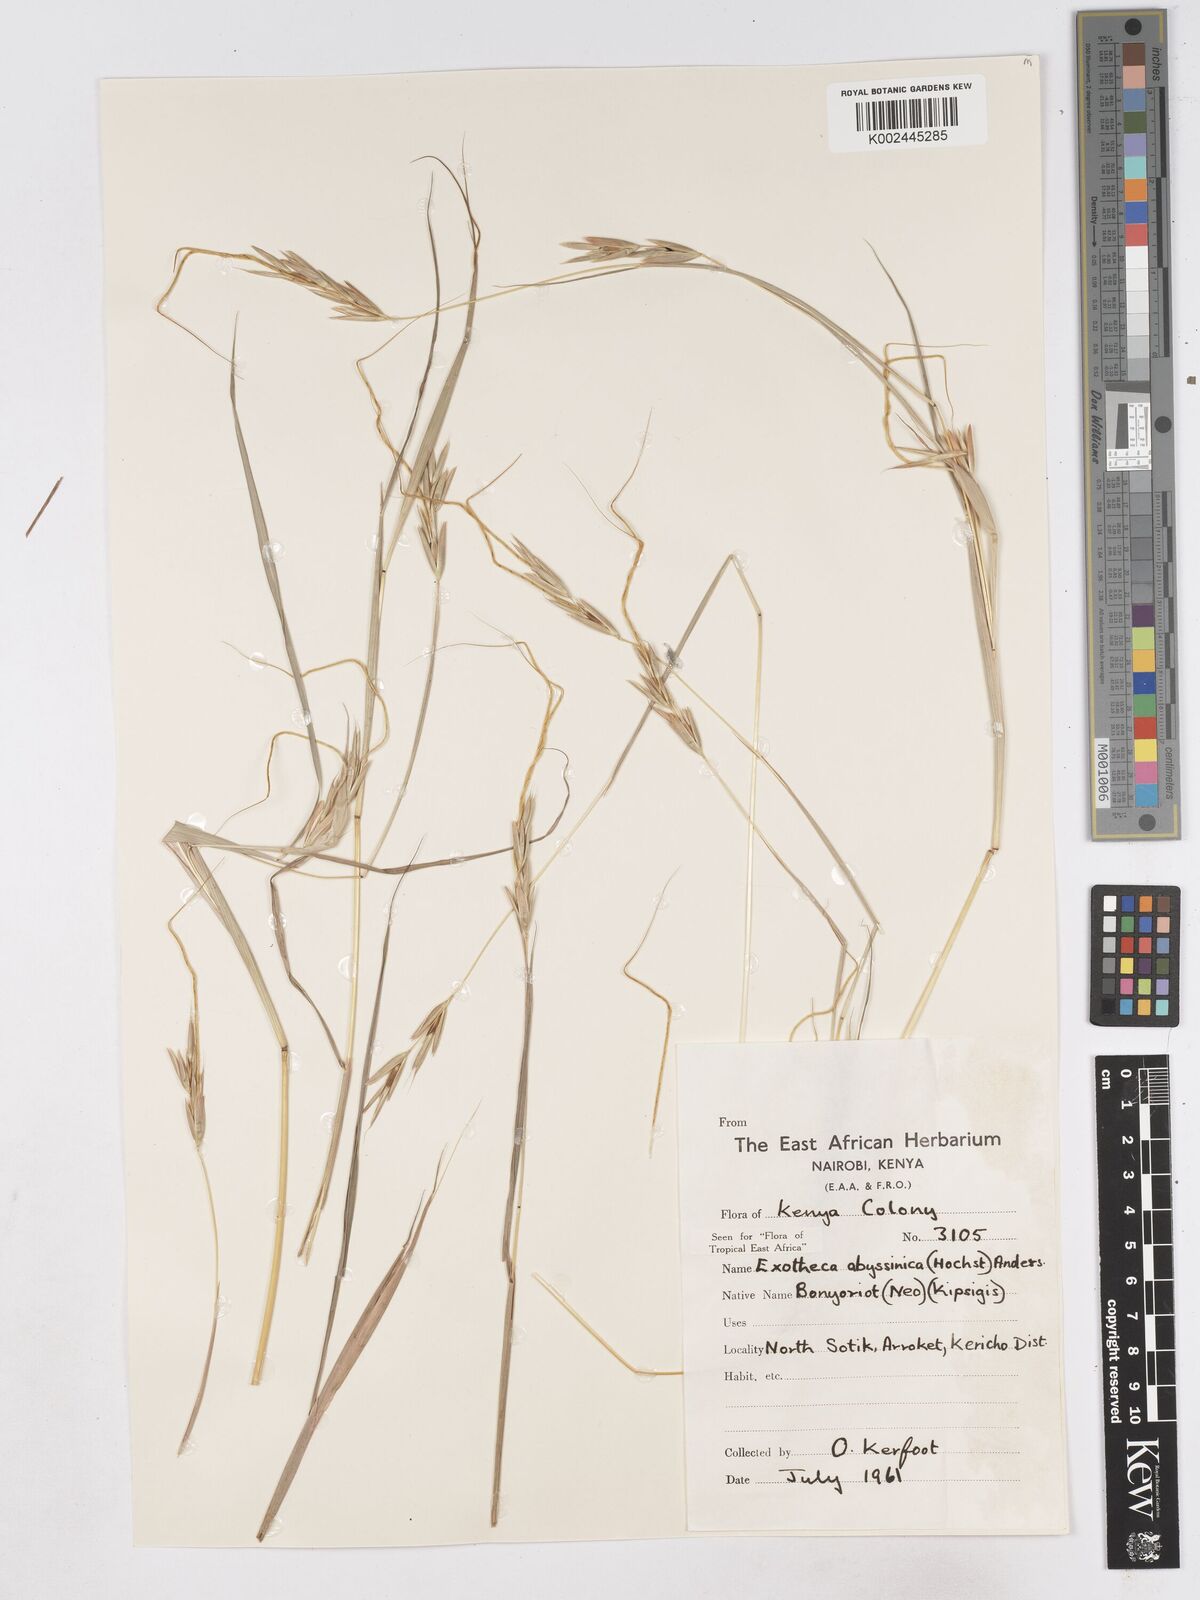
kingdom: Plantae
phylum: Tracheophyta
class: Liliopsida
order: Poales
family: Poaceae
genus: Exotheca
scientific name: Exotheca abyssinica
